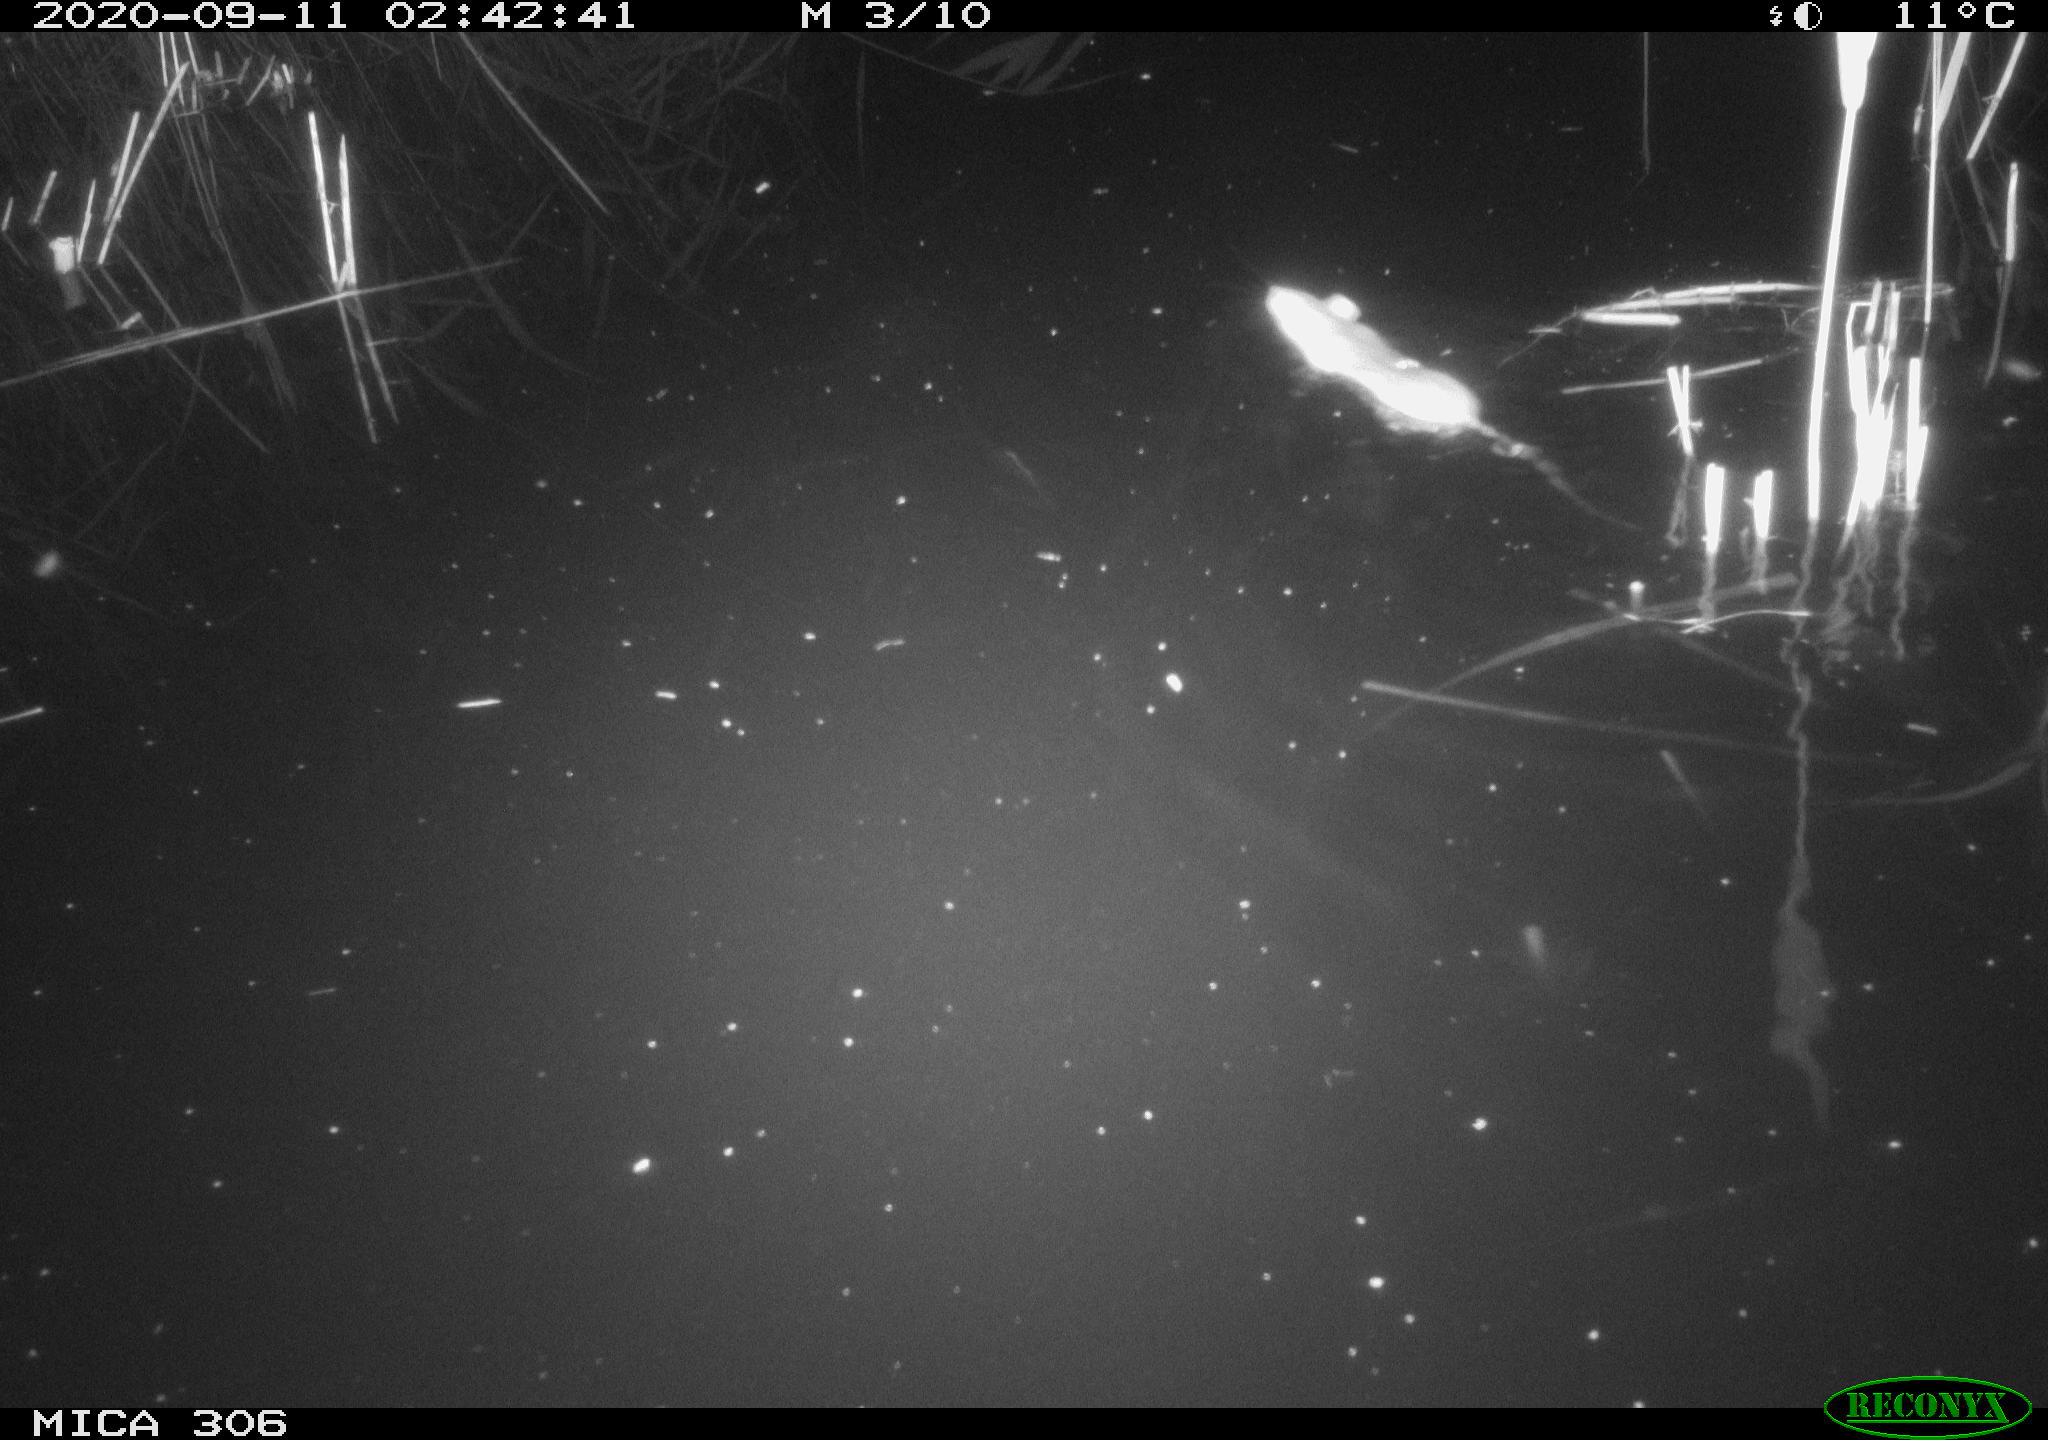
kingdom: Animalia
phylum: Chordata
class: Mammalia
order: Rodentia
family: Muridae
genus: Rattus
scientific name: Rattus norvegicus
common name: Brown rat
